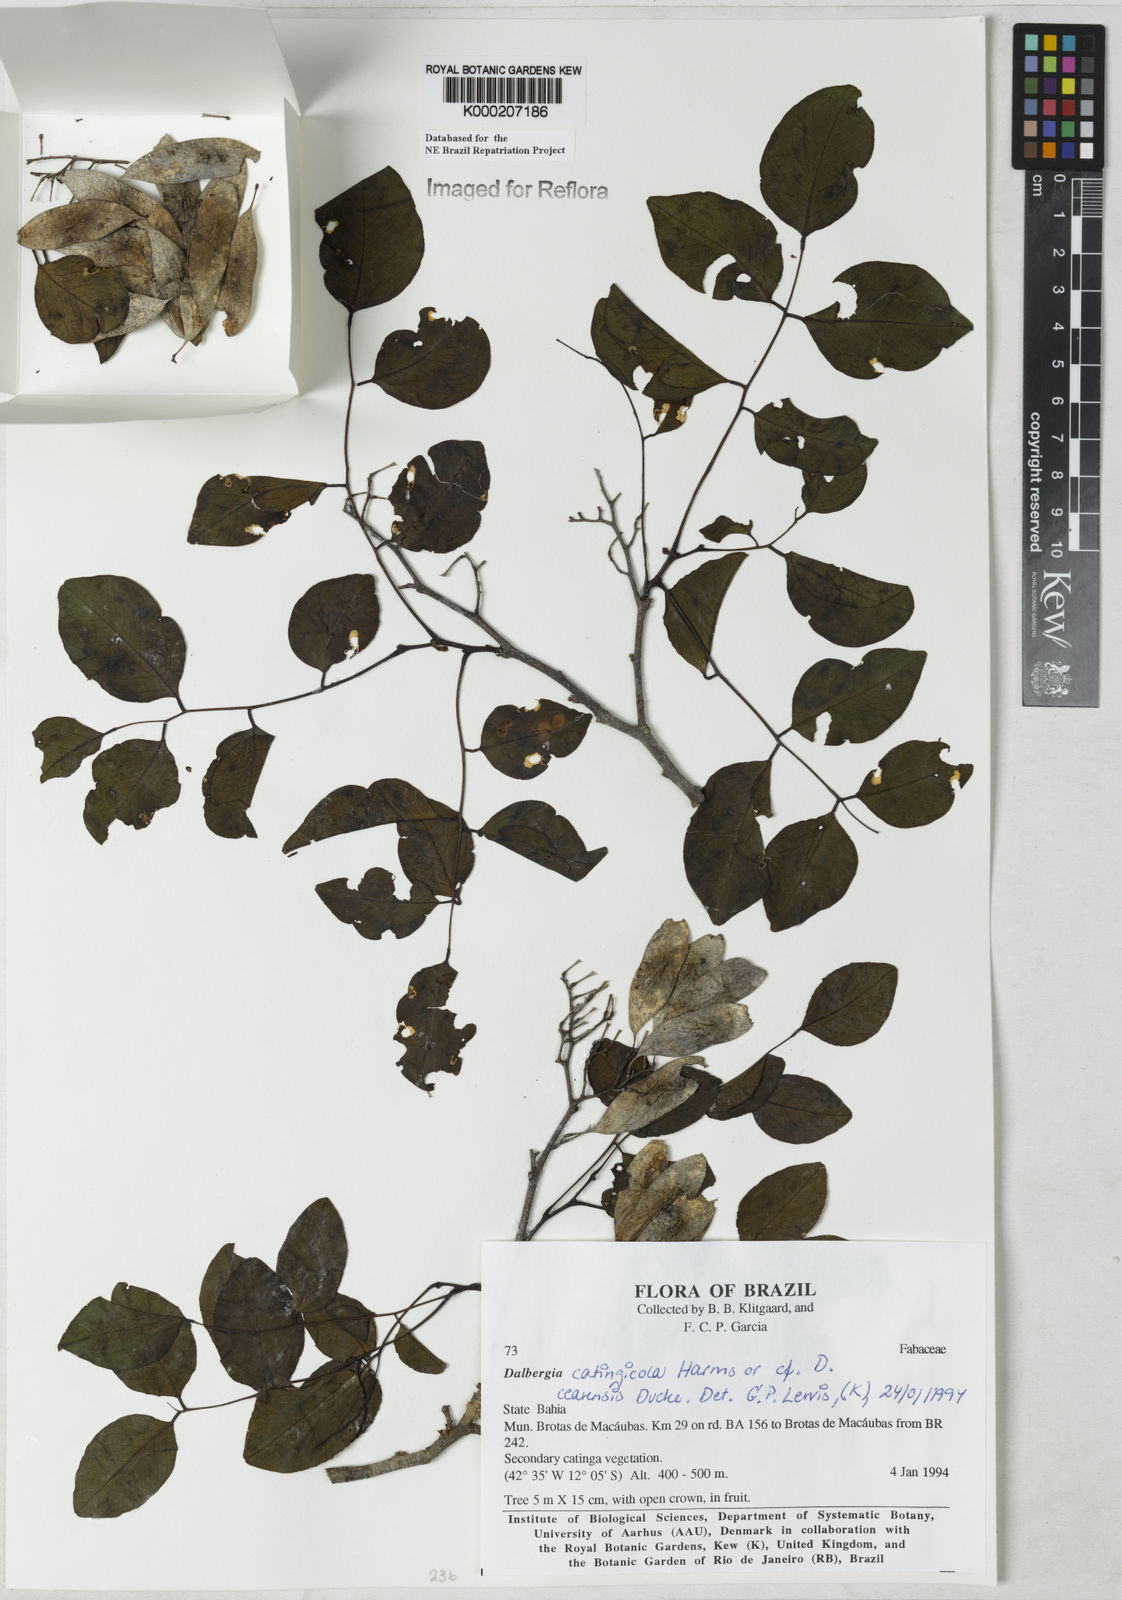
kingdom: Plantae
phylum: Tracheophyta
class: Magnoliopsida
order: Fabales
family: Fabaceae
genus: Dalbergia
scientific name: Dalbergia catingicola
